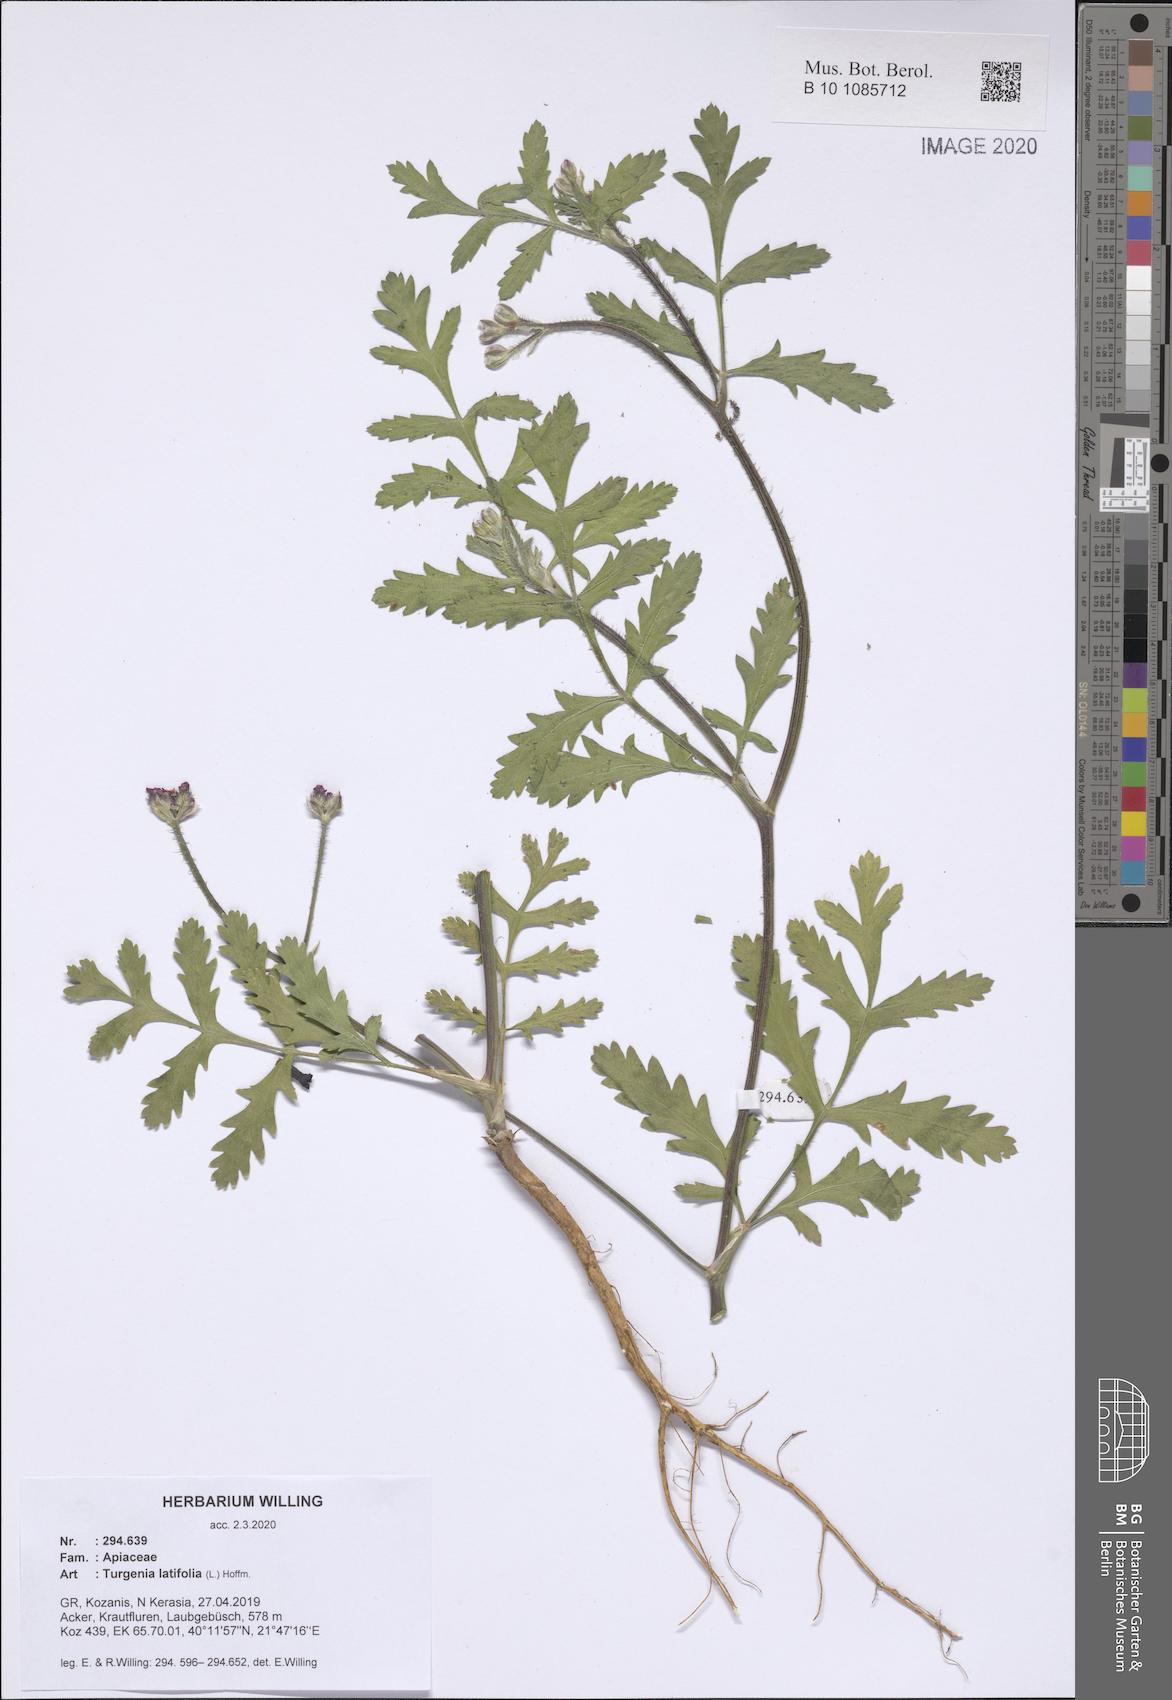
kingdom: Plantae
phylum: Tracheophyta
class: Magnoliopsida
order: Apiales
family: Apiaceae
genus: Turgenia
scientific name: Turgenia latifolia
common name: Greater bur-parsley
